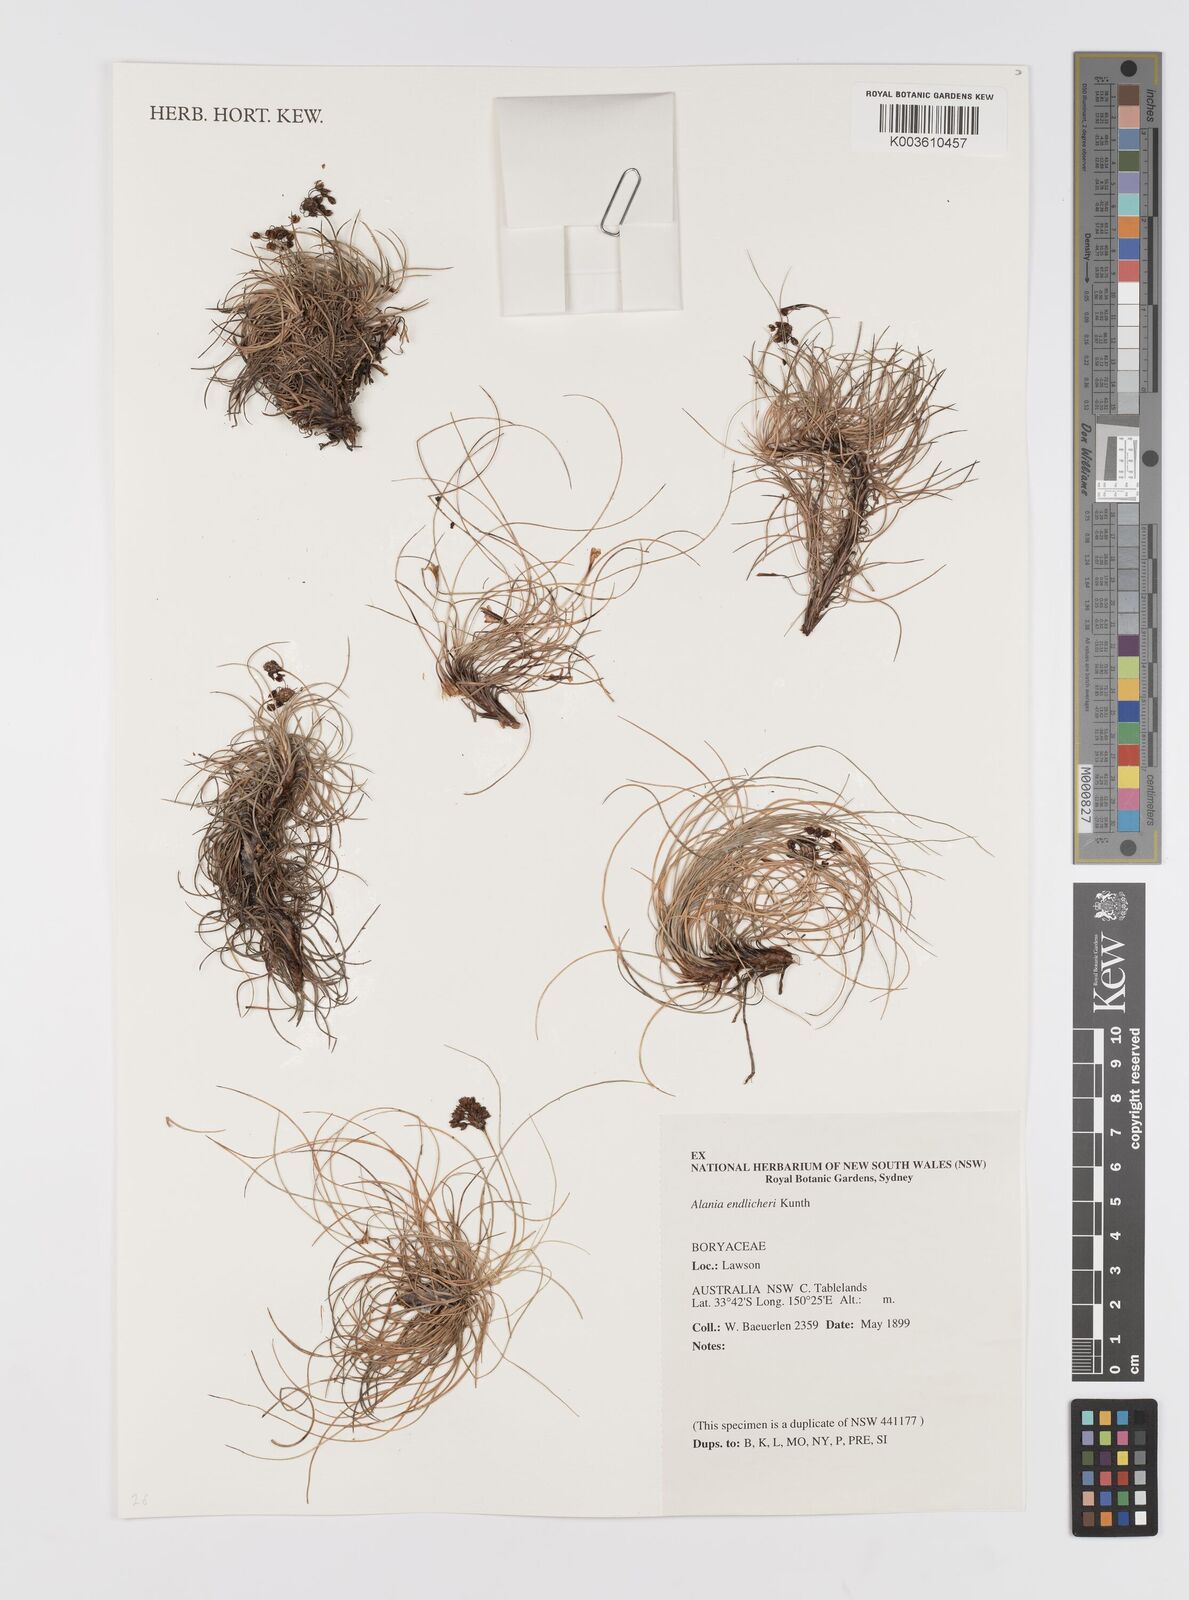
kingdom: Plantae
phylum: Tracheophyta
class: Liliopsida
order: Asparagales
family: Boryaceae
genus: Alania
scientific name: Alania cunninghamii
